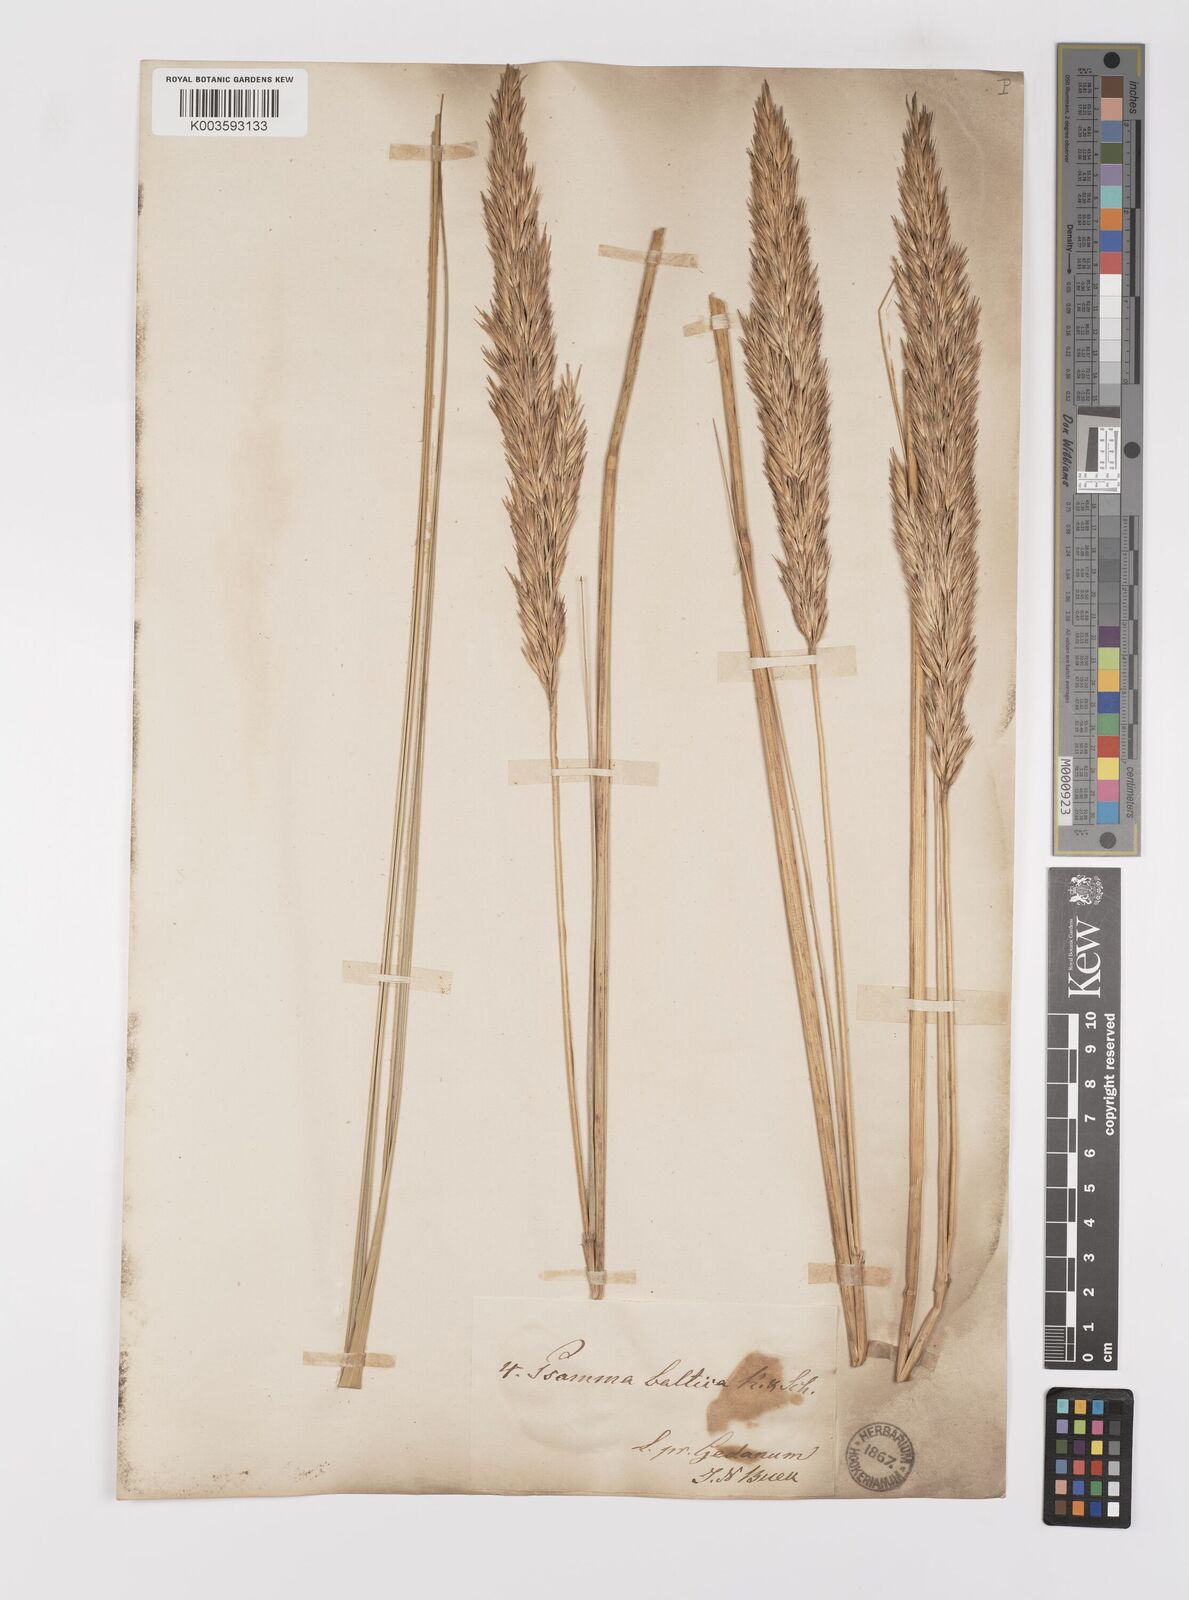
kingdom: Plantae
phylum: Tracheophyta
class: Liliopsida
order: Poales
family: Poaceae
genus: Calamagrostis
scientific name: Calamagrostis baltica
